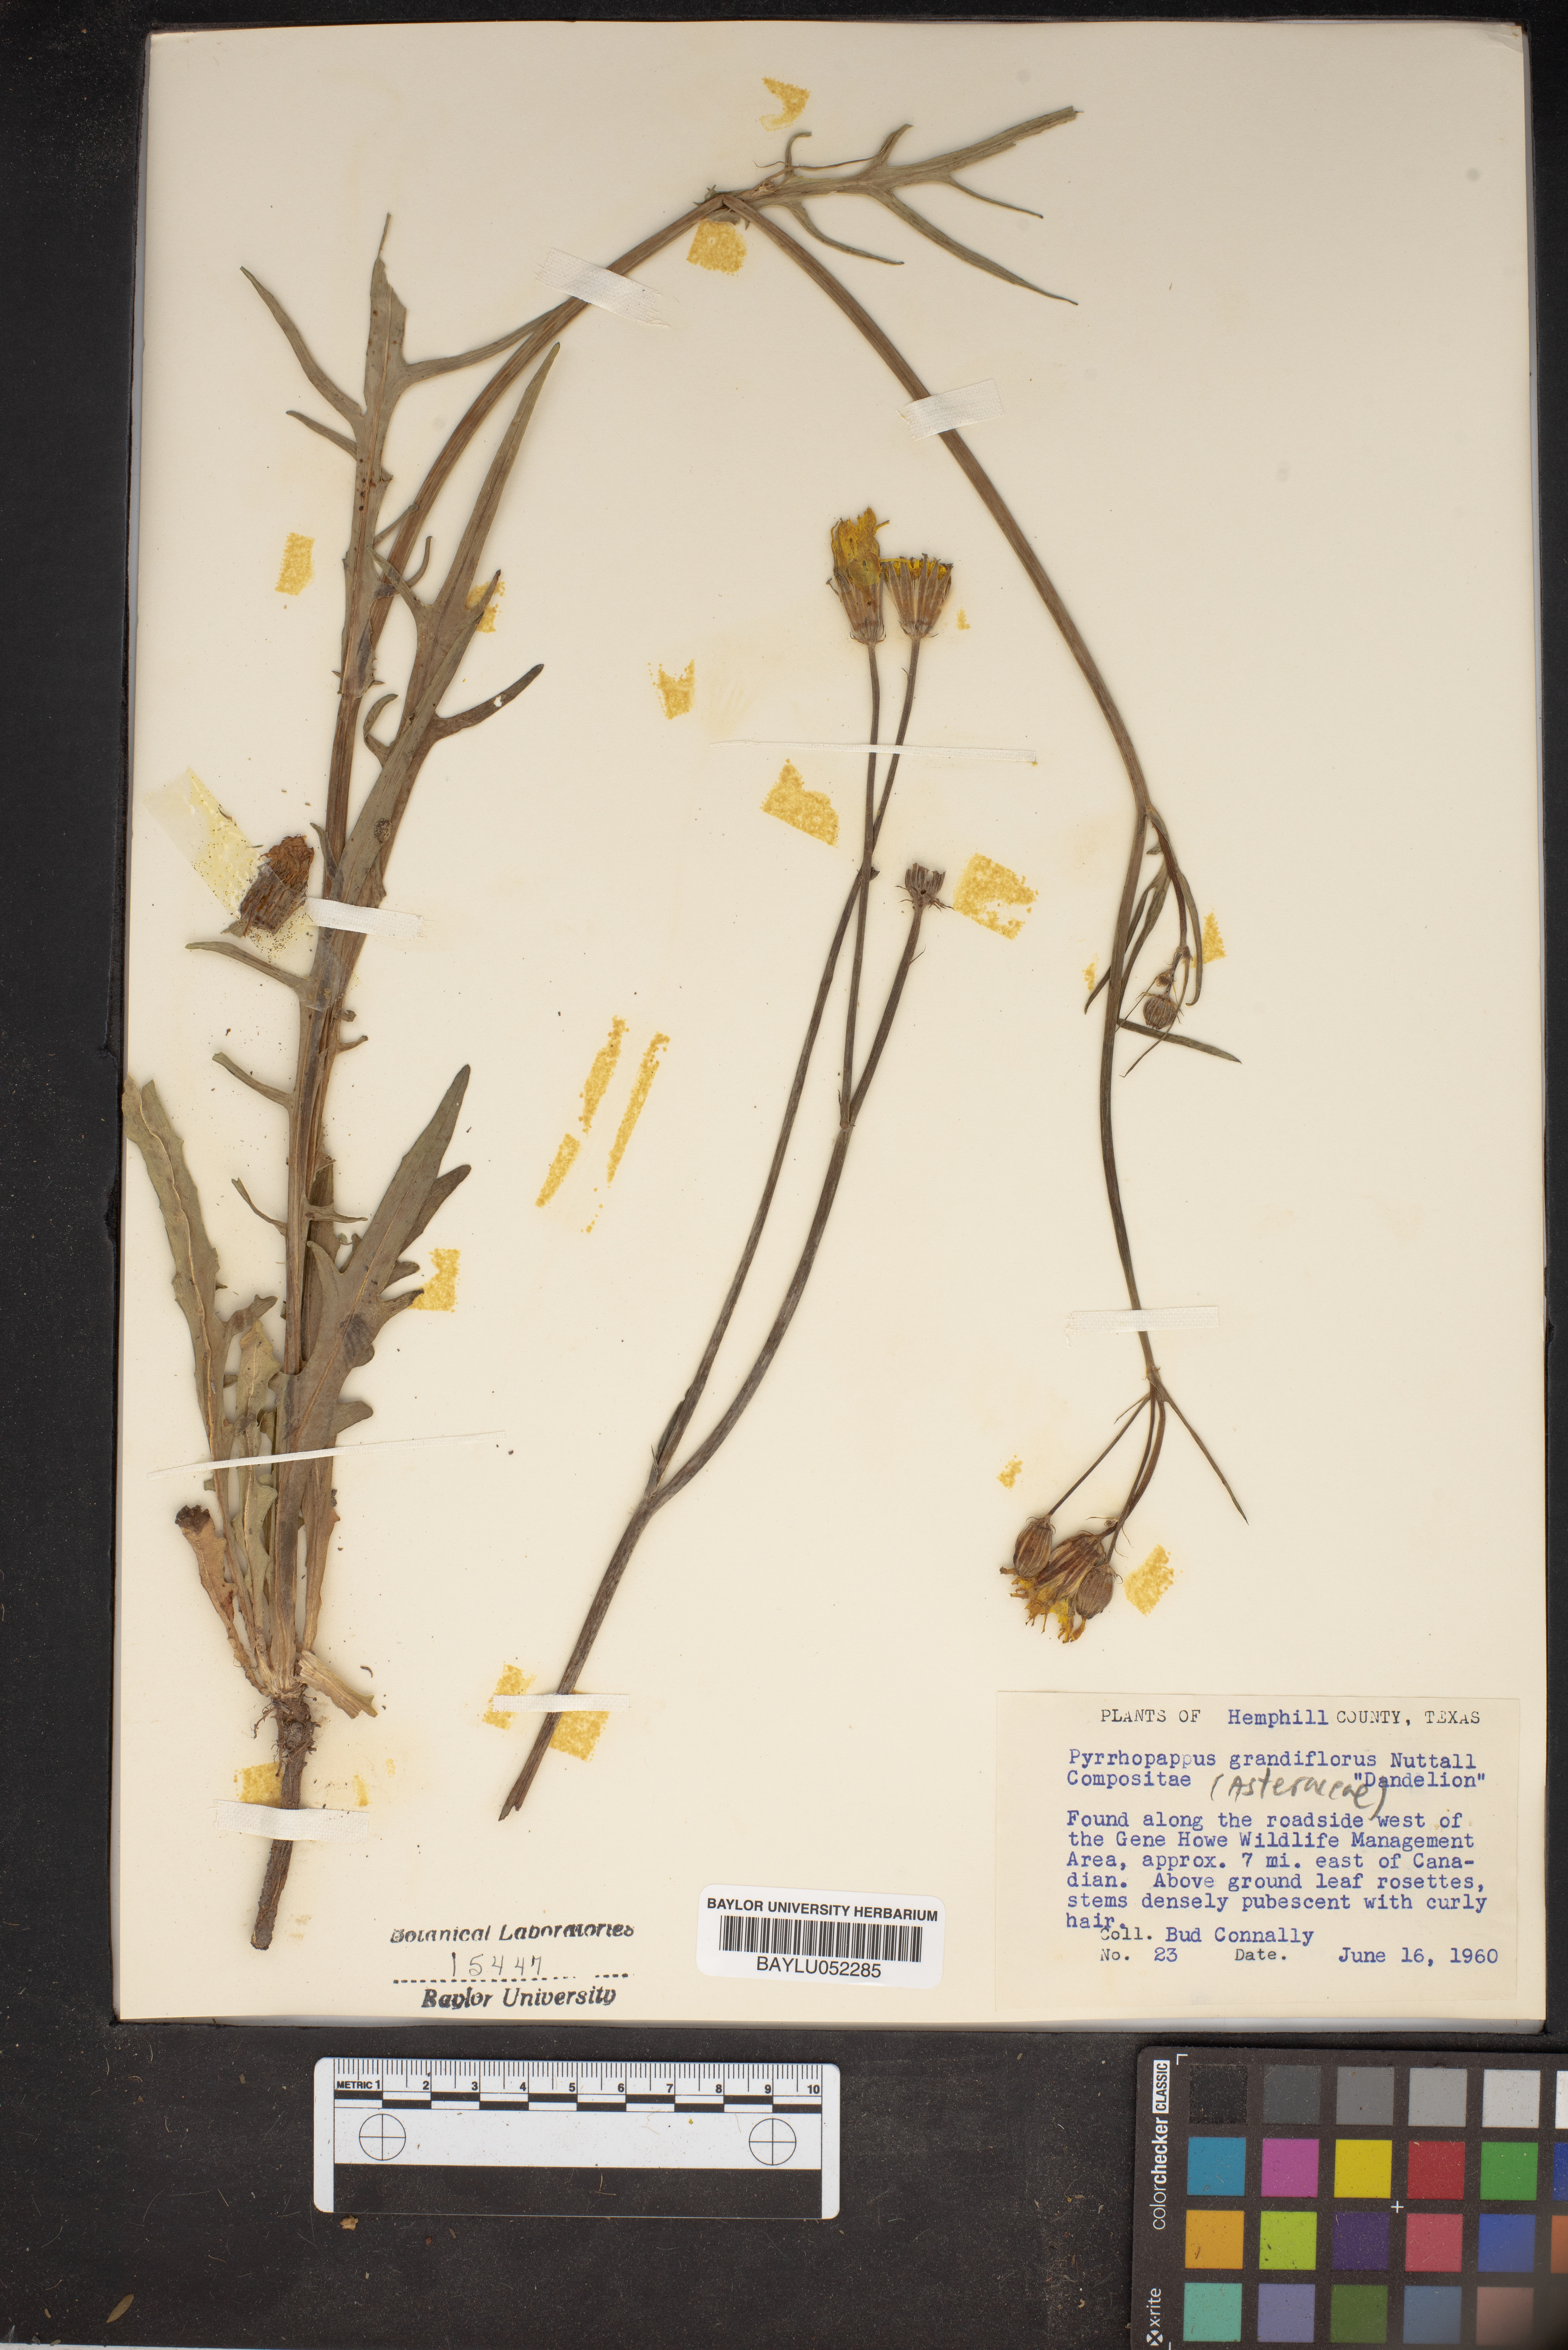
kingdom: Plantae
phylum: Tracheophyta
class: Magnoliopsida
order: Asterales
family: Asteraceae
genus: Pyrrhopappus
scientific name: Pyrrhopappus grandiflorus
